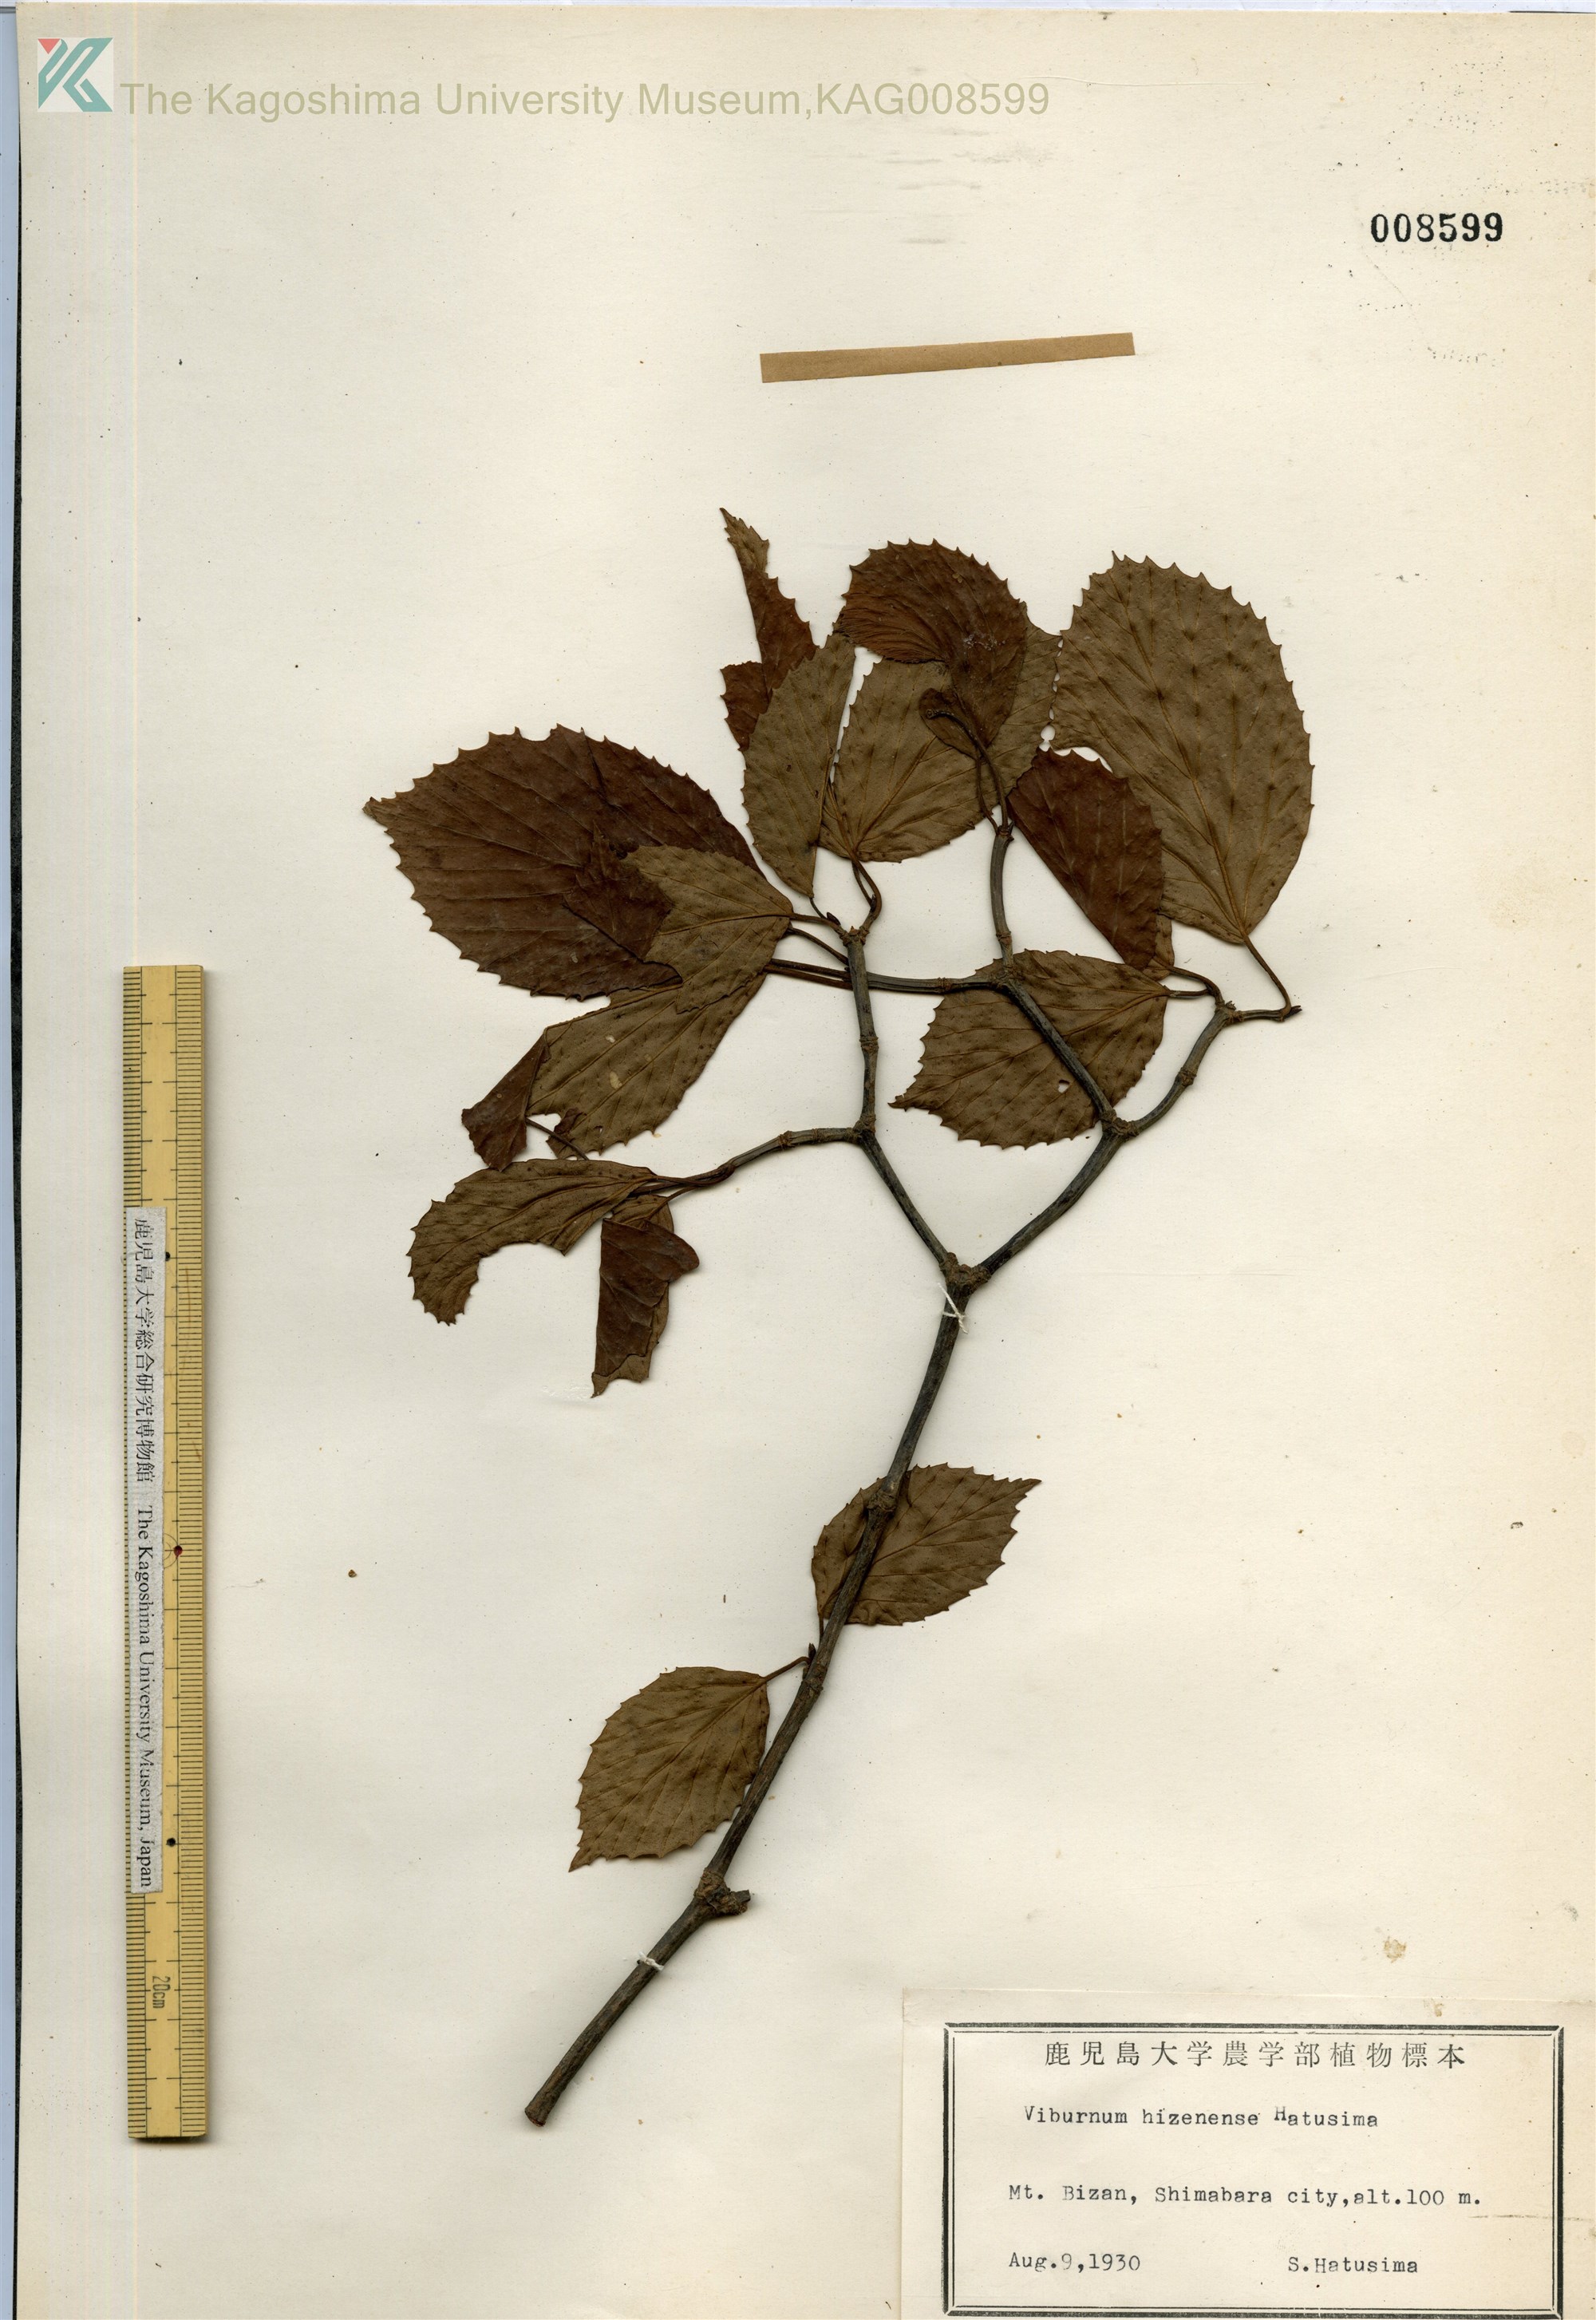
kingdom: Plantae
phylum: Tracheophyta
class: Magnoliopsida
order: Dipsacales
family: Viburnaceae
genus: Viburnum
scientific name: Viburnum hizenense
